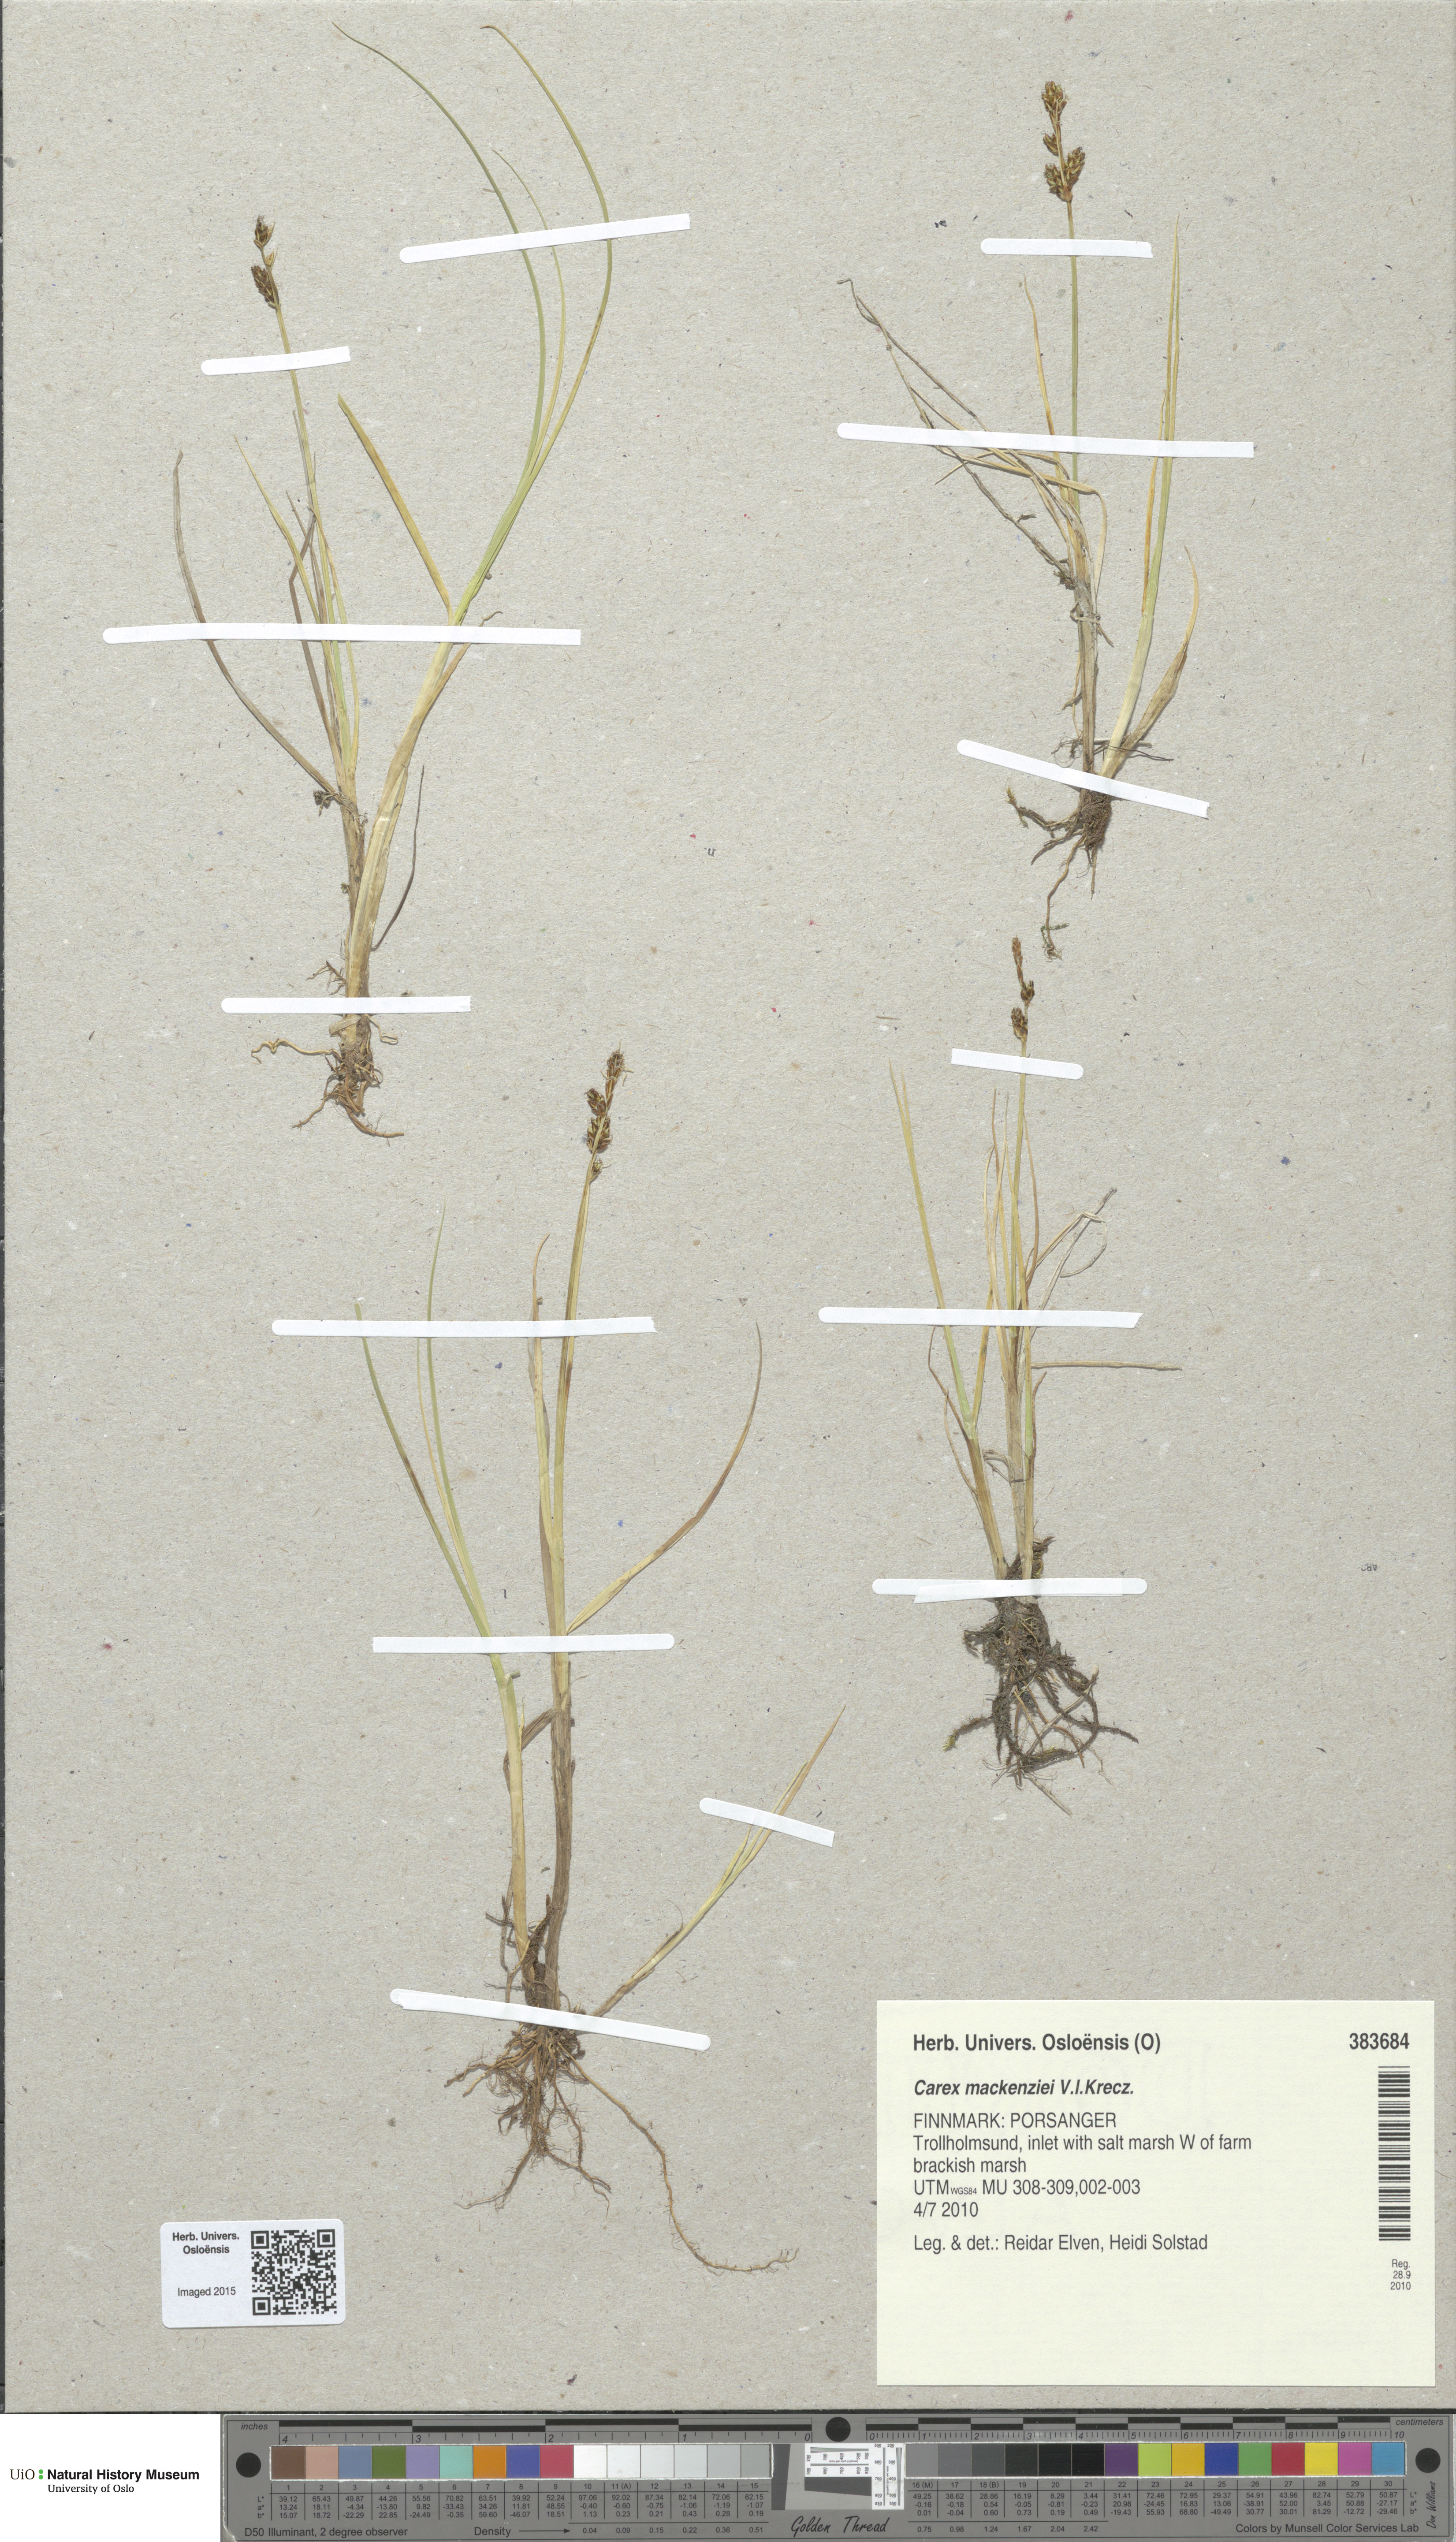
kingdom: Plantae
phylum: Tracheophyta
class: Liliopsida
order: Poales
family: Cyperaceae
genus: Carex
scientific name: Carex mackenziei
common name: Mackenzie's sedge
